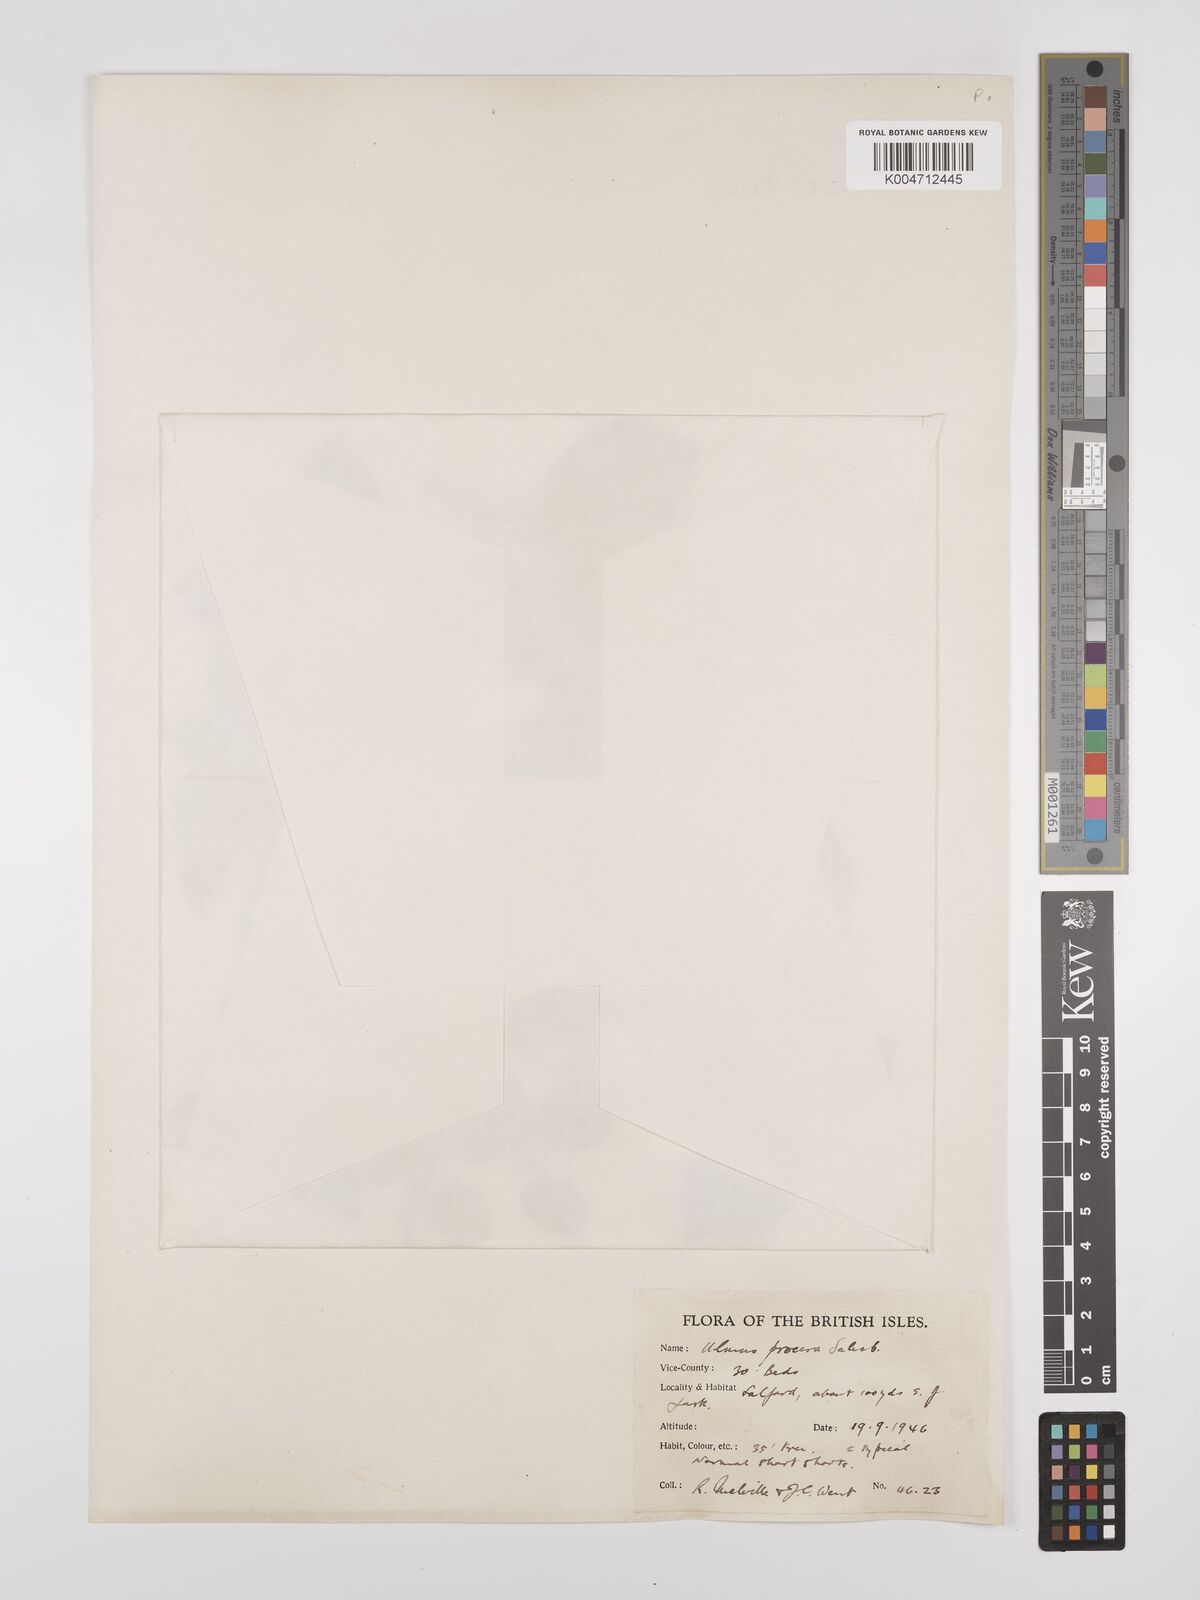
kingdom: Plantae
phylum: Tracheophyta
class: Magnoliopsida
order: Rosales
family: Ulmaceae
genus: Ulmus
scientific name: Ulmus minor
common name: Small-leaved elm
